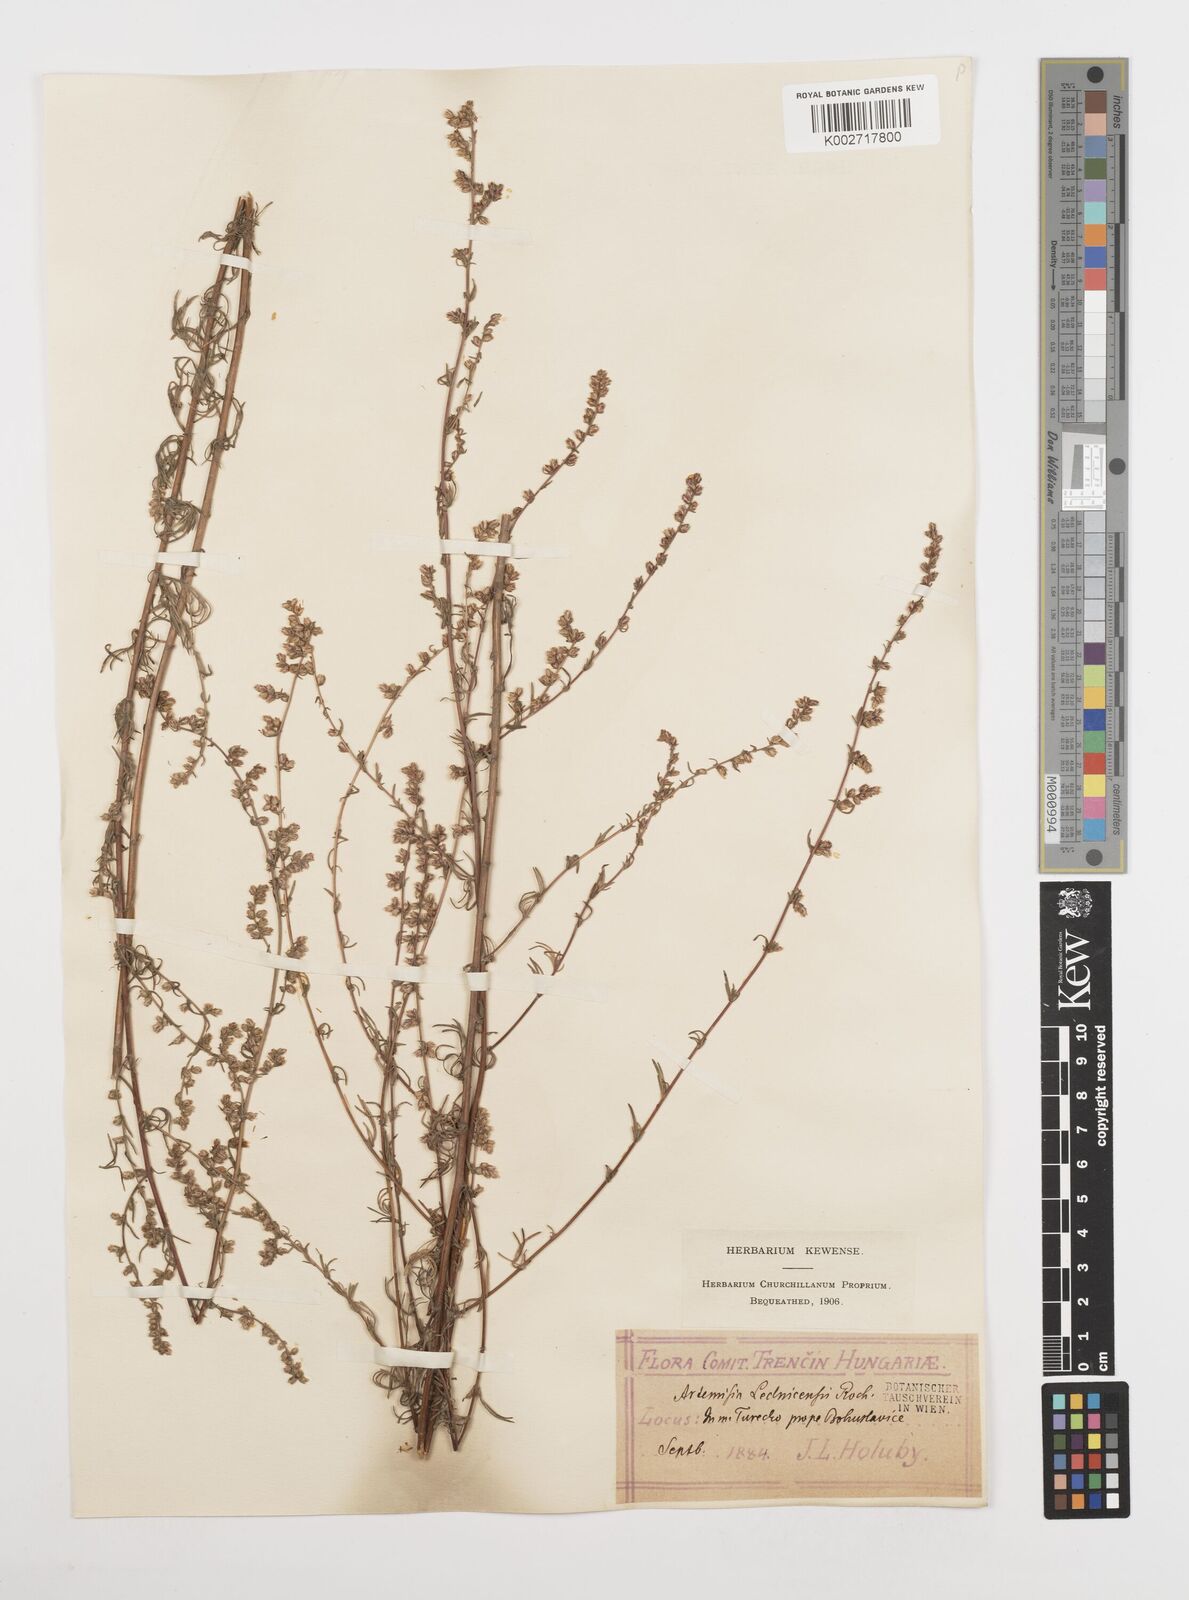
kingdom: Plantae
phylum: Tracheophyta
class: Magnoliopsida
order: Asterales
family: Asteraceae
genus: Artemisia
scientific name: Artemisia campestris
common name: Field wormwood
